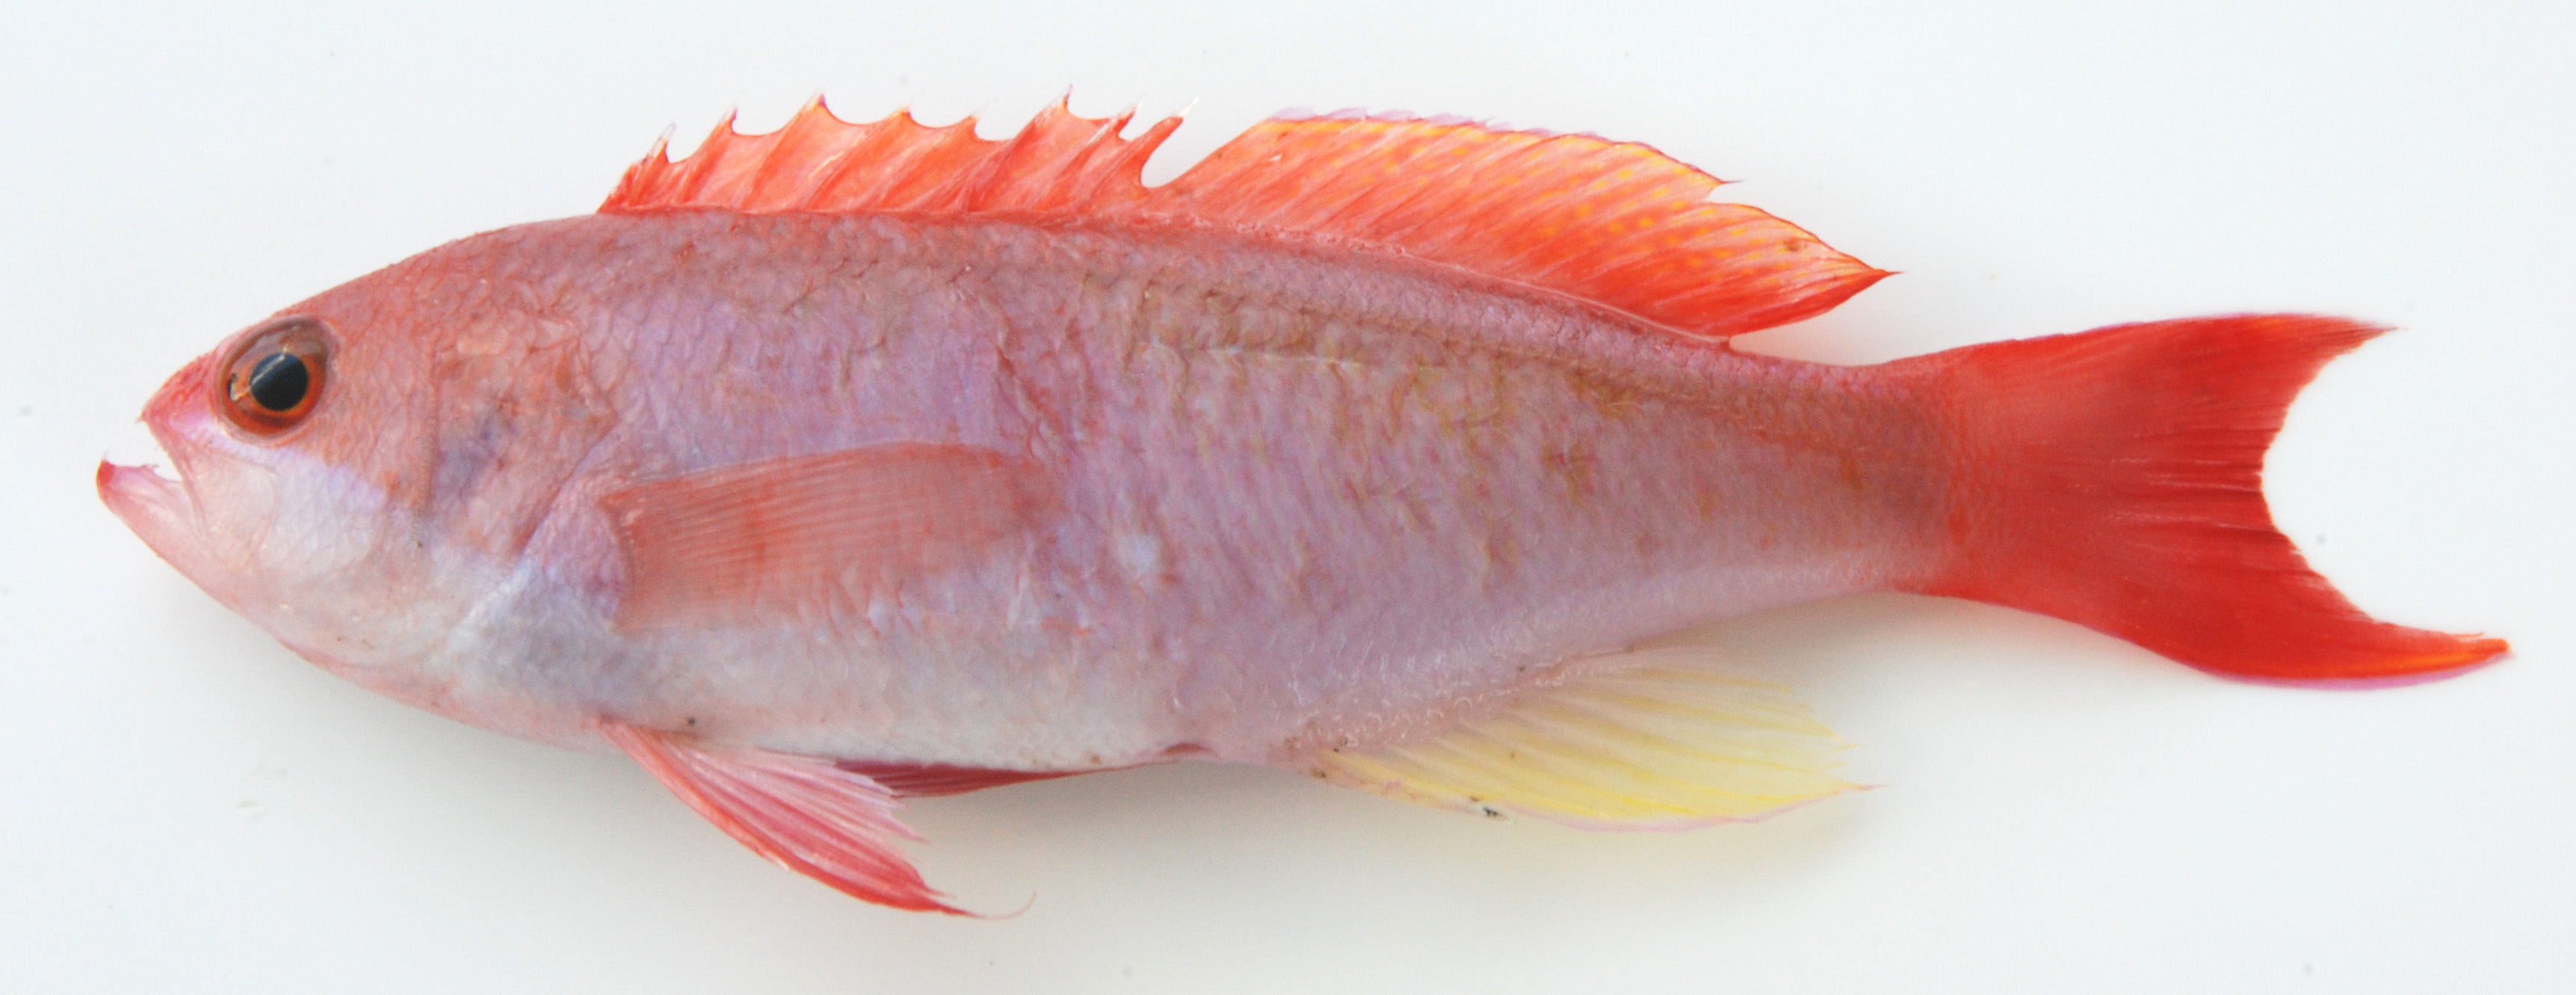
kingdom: Animalia
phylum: Chordata
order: Perciformes
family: Serranidae
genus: Pseudanthias
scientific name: Pseudanthias cooperi
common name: Red basslet
